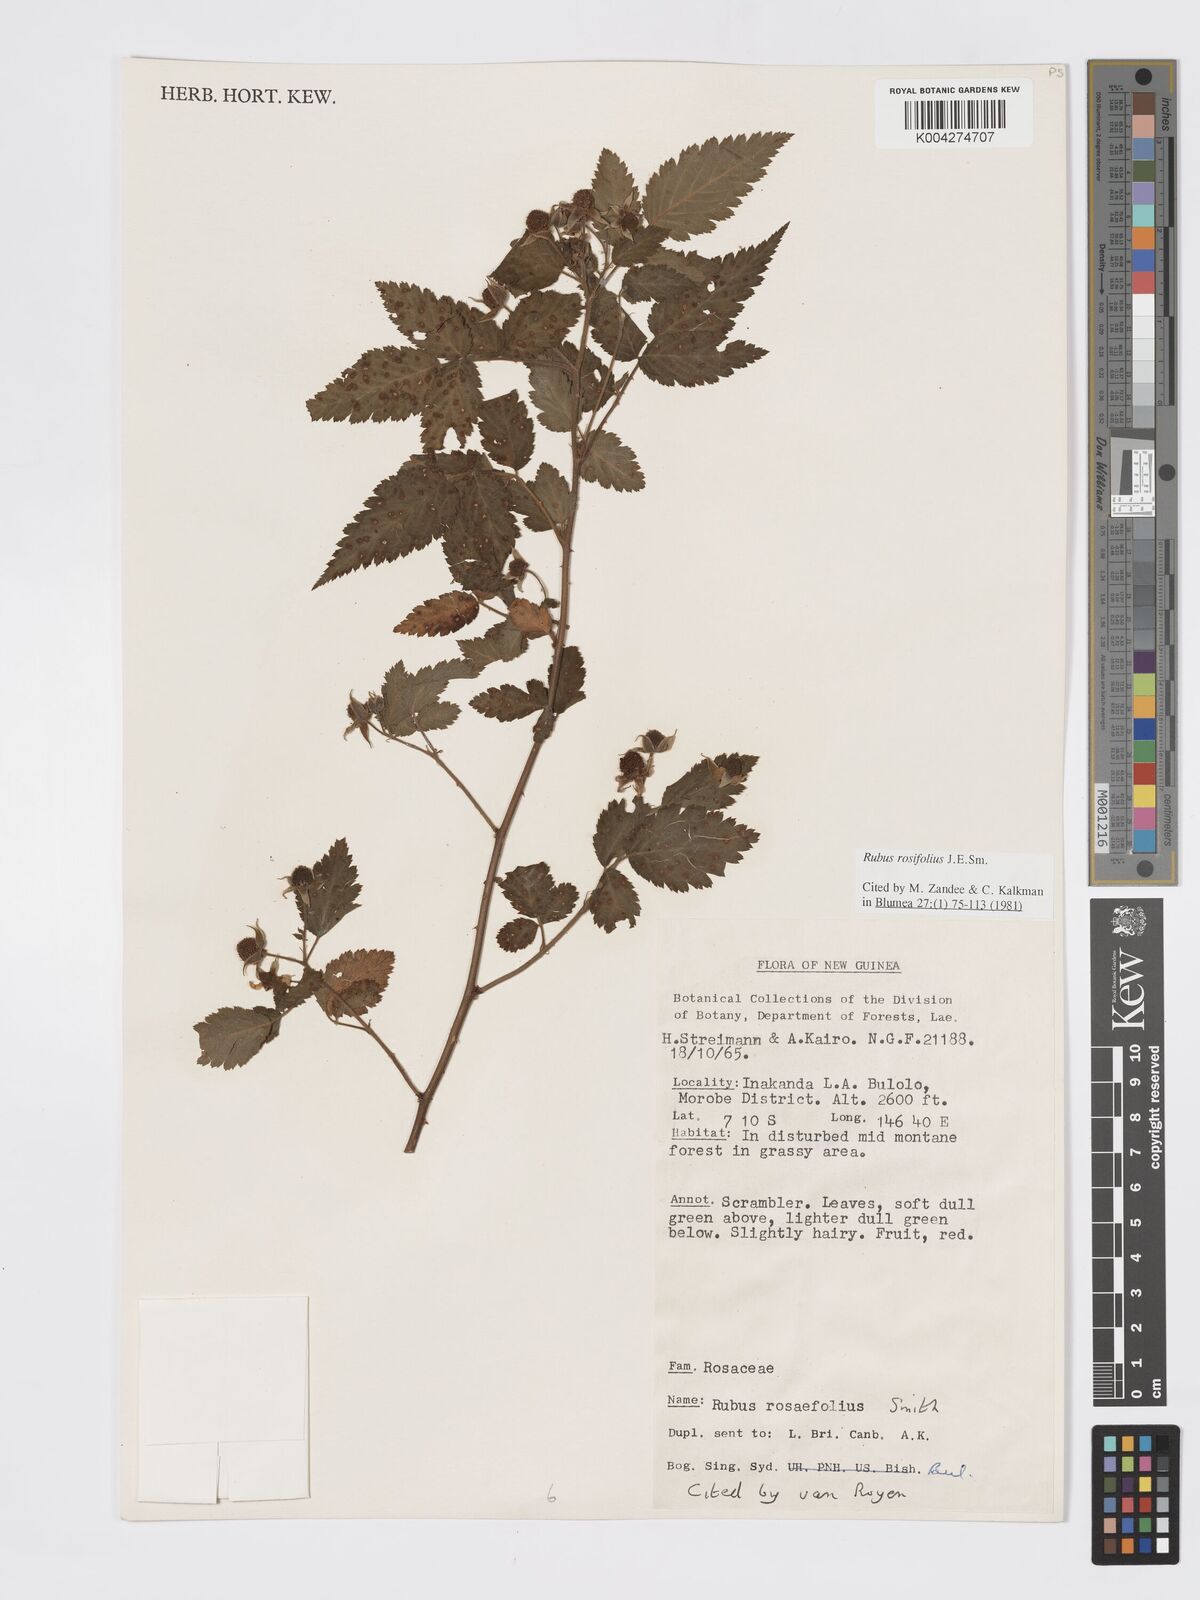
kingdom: Plantae
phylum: Tracheophyta
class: Magnoliopsida
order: Rosales
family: Rosaceae
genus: Rubus
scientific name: Rubus
